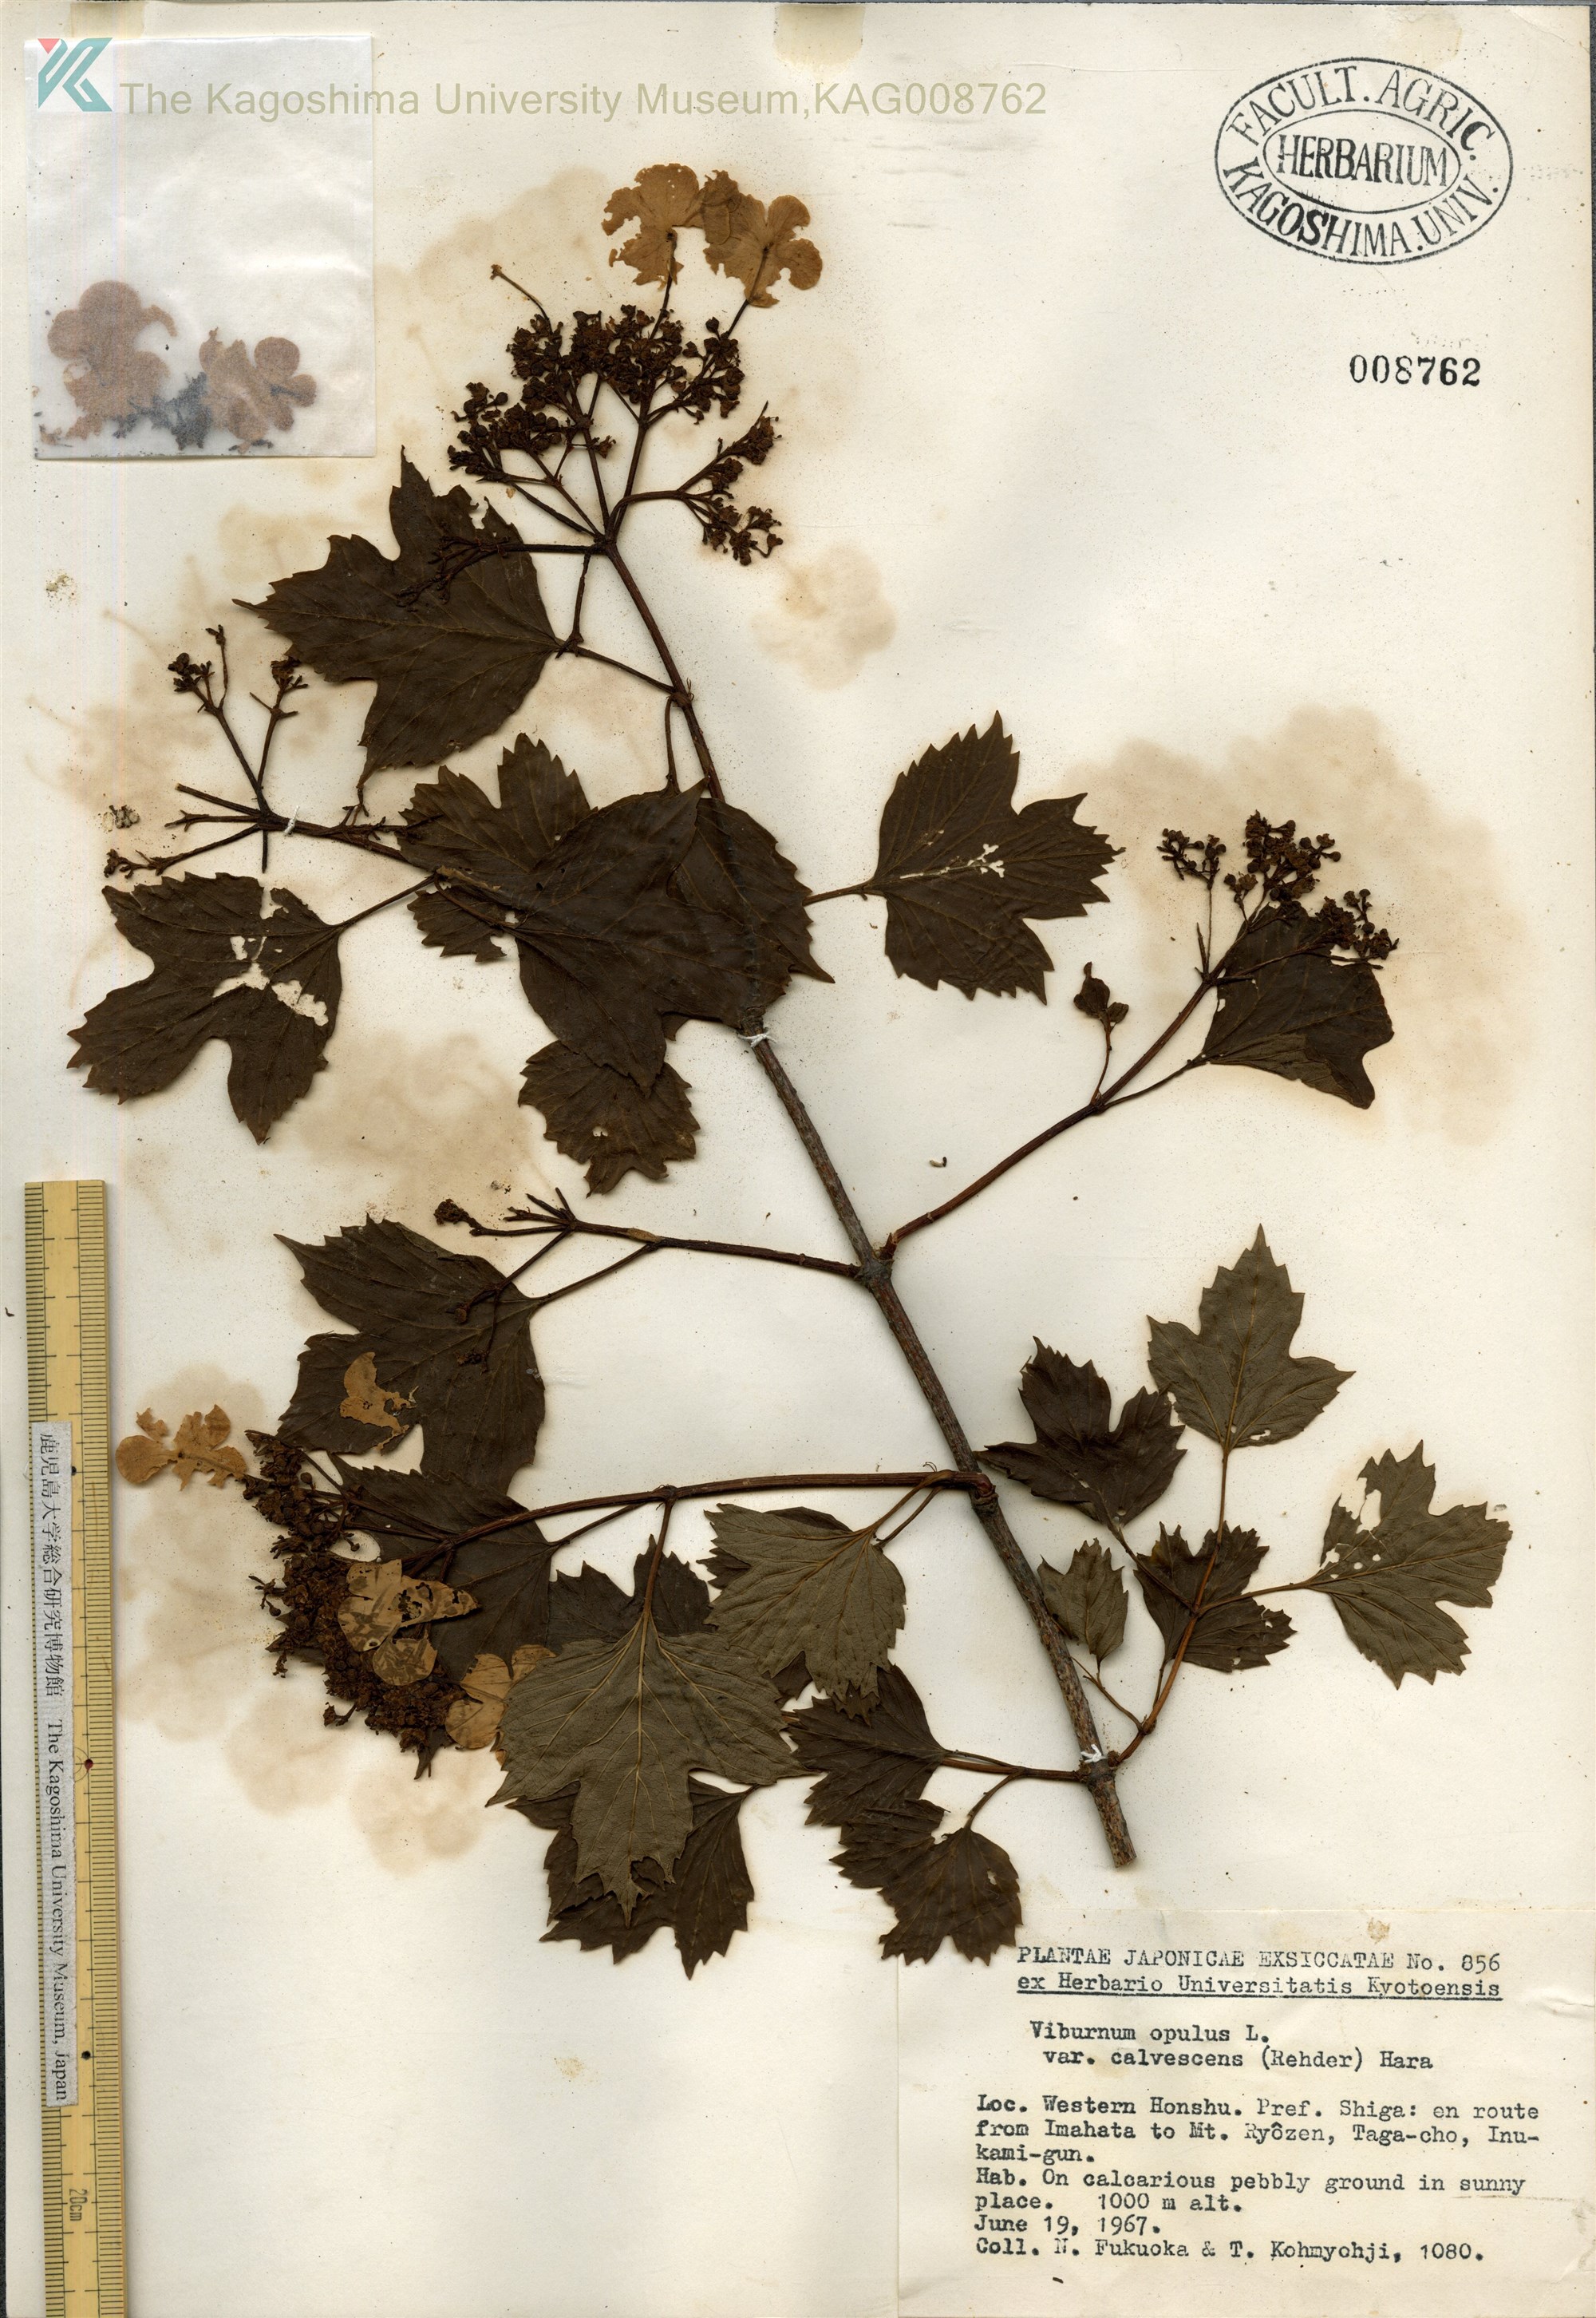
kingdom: Plantae
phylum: Tracheophyta
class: Magnoliopsida
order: Dipsacales
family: Viburnaceae
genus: Viburnum
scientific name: Viburnum opulus
